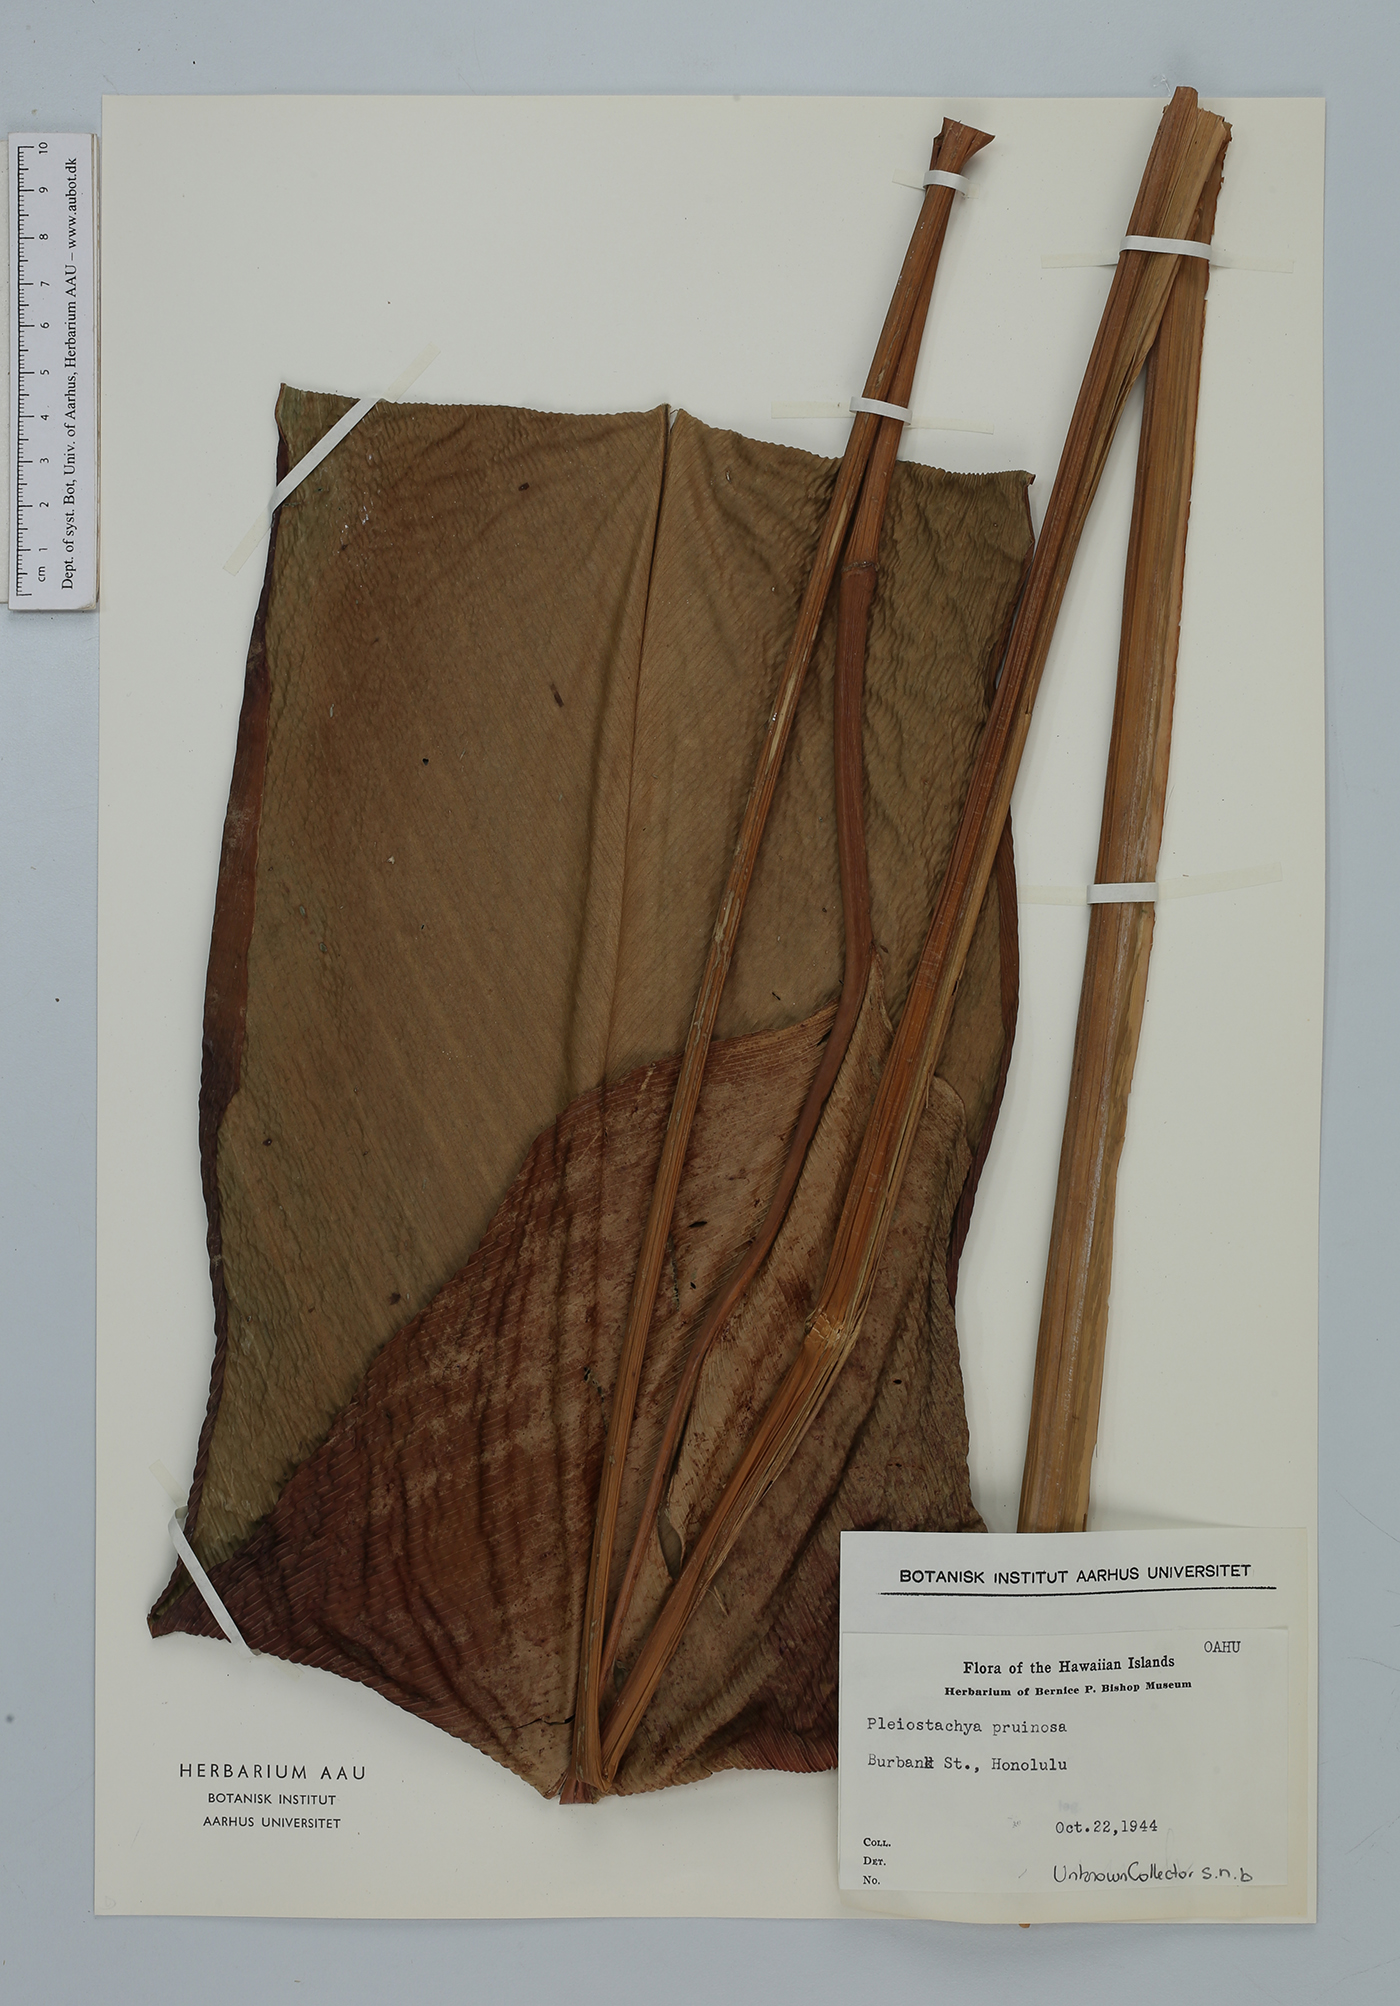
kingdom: Plantae
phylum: Tracheophyta
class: Liliopsida
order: Zingiberales
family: Marantaceae
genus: Pleiostachya
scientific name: Pleiostachya pruinosa
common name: Prayer plant
